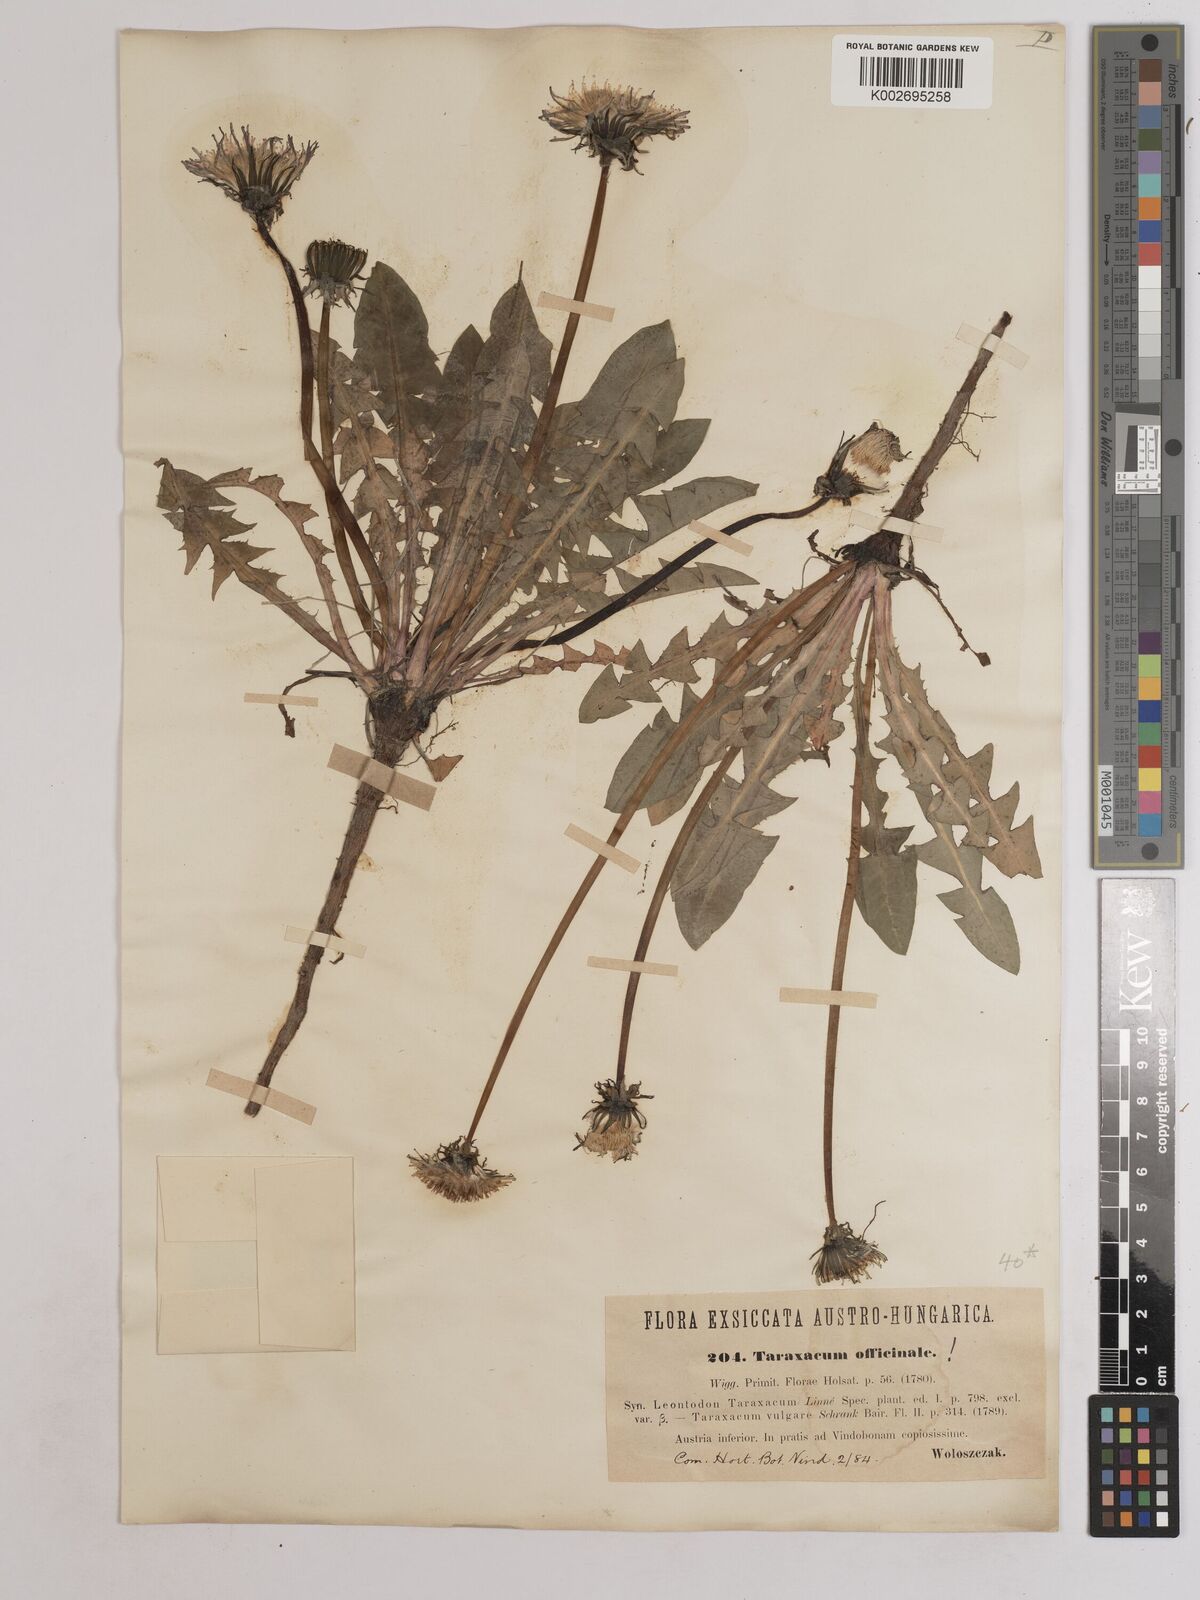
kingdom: Plantae
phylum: Tracheophyta
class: Magnoliopsida
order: Asterales
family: Asteraceae
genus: Taraxacum
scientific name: Taraxacum officinale
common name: Common dandelion
